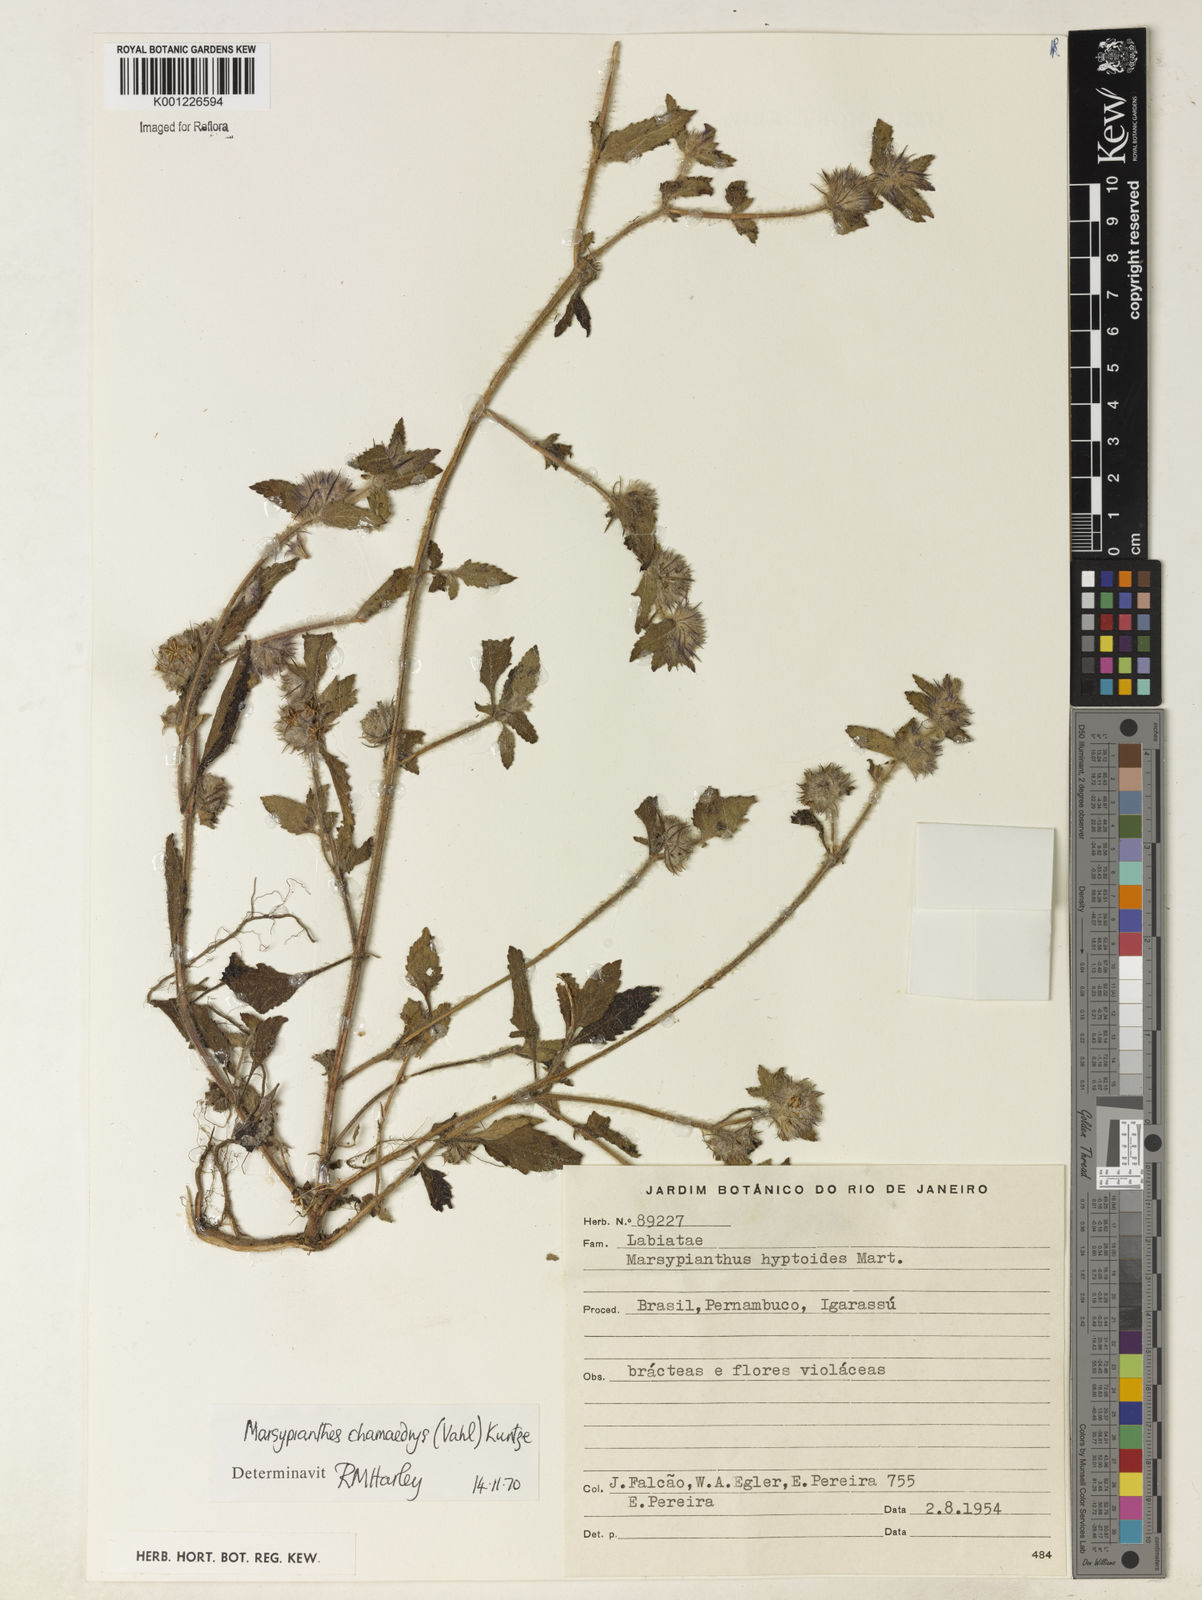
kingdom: Plantae
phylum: Tracheophyta
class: Magnoliopsida
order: Lamiales
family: Lamiaceae
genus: Marsypianthes
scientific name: Marsypianthes chamaedrys
